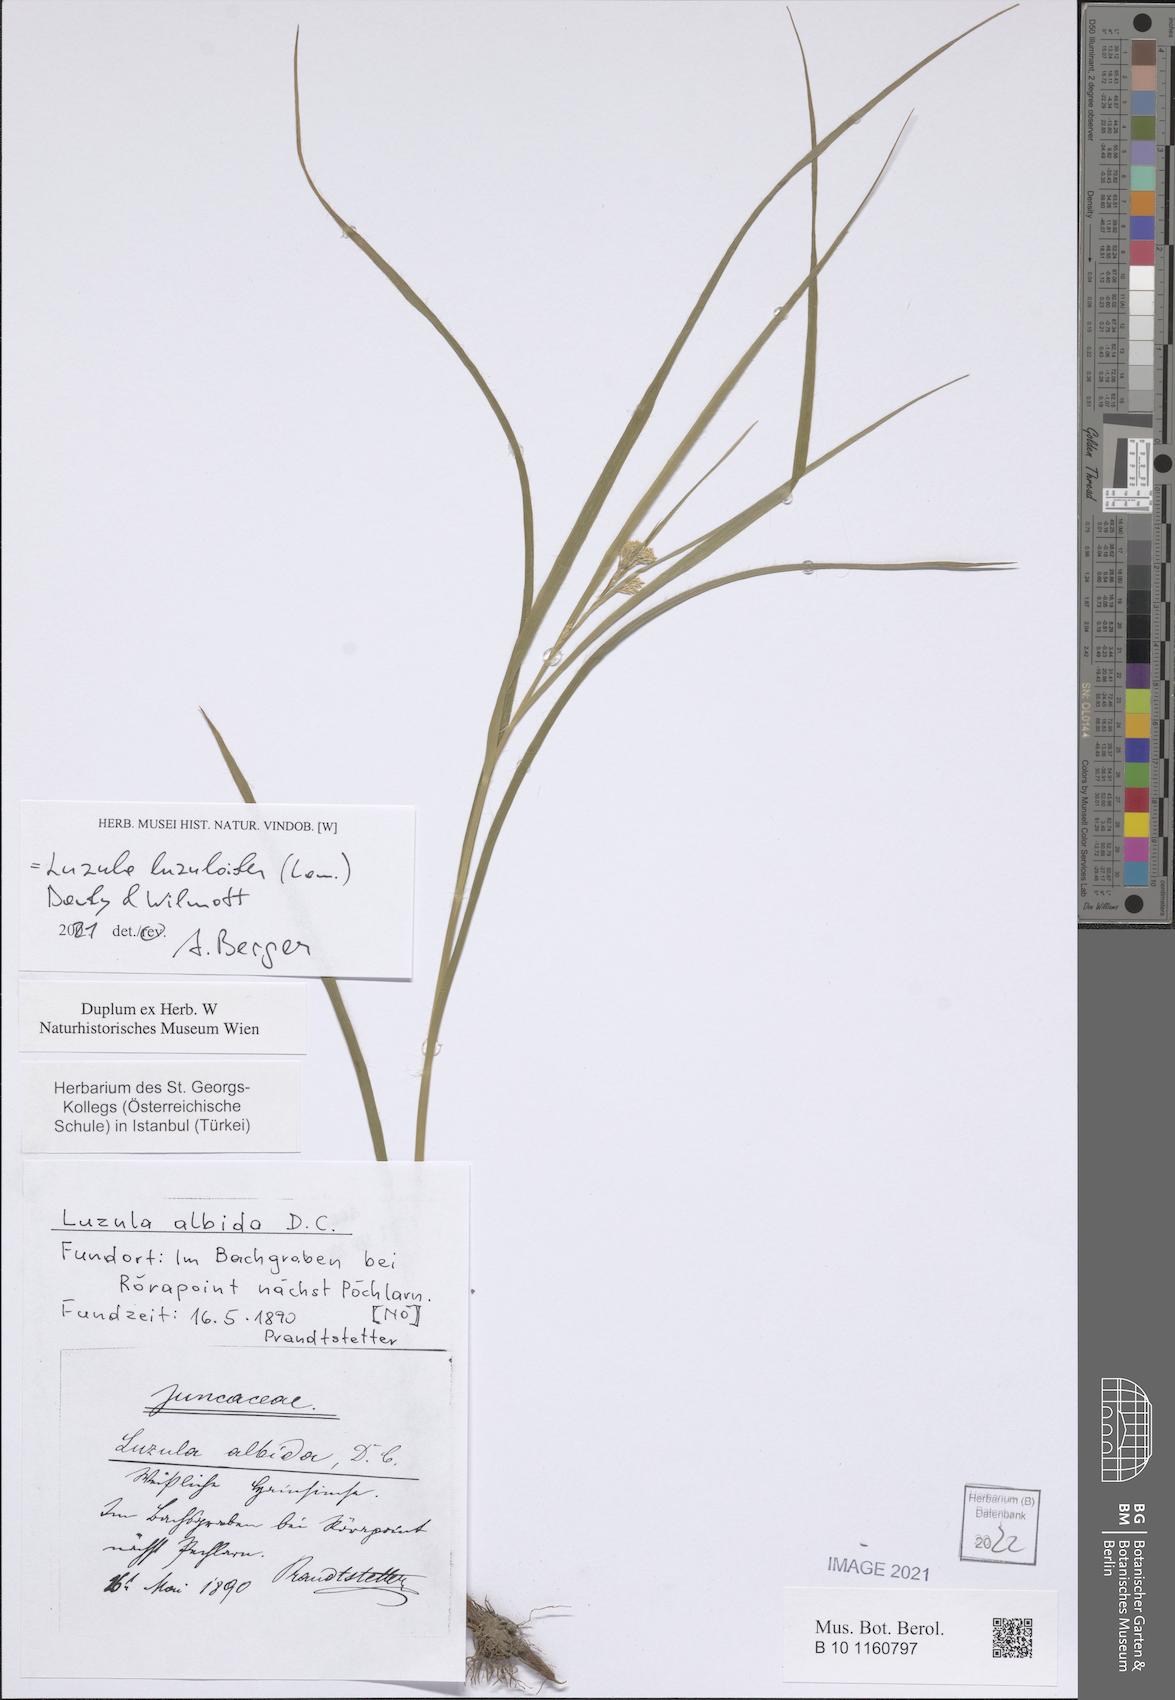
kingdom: Plantae
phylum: Tracheophyta
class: Liliopsida
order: Poales
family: Juncaceae
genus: Luzula
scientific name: Luzula luzuloides
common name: White wood-rush
